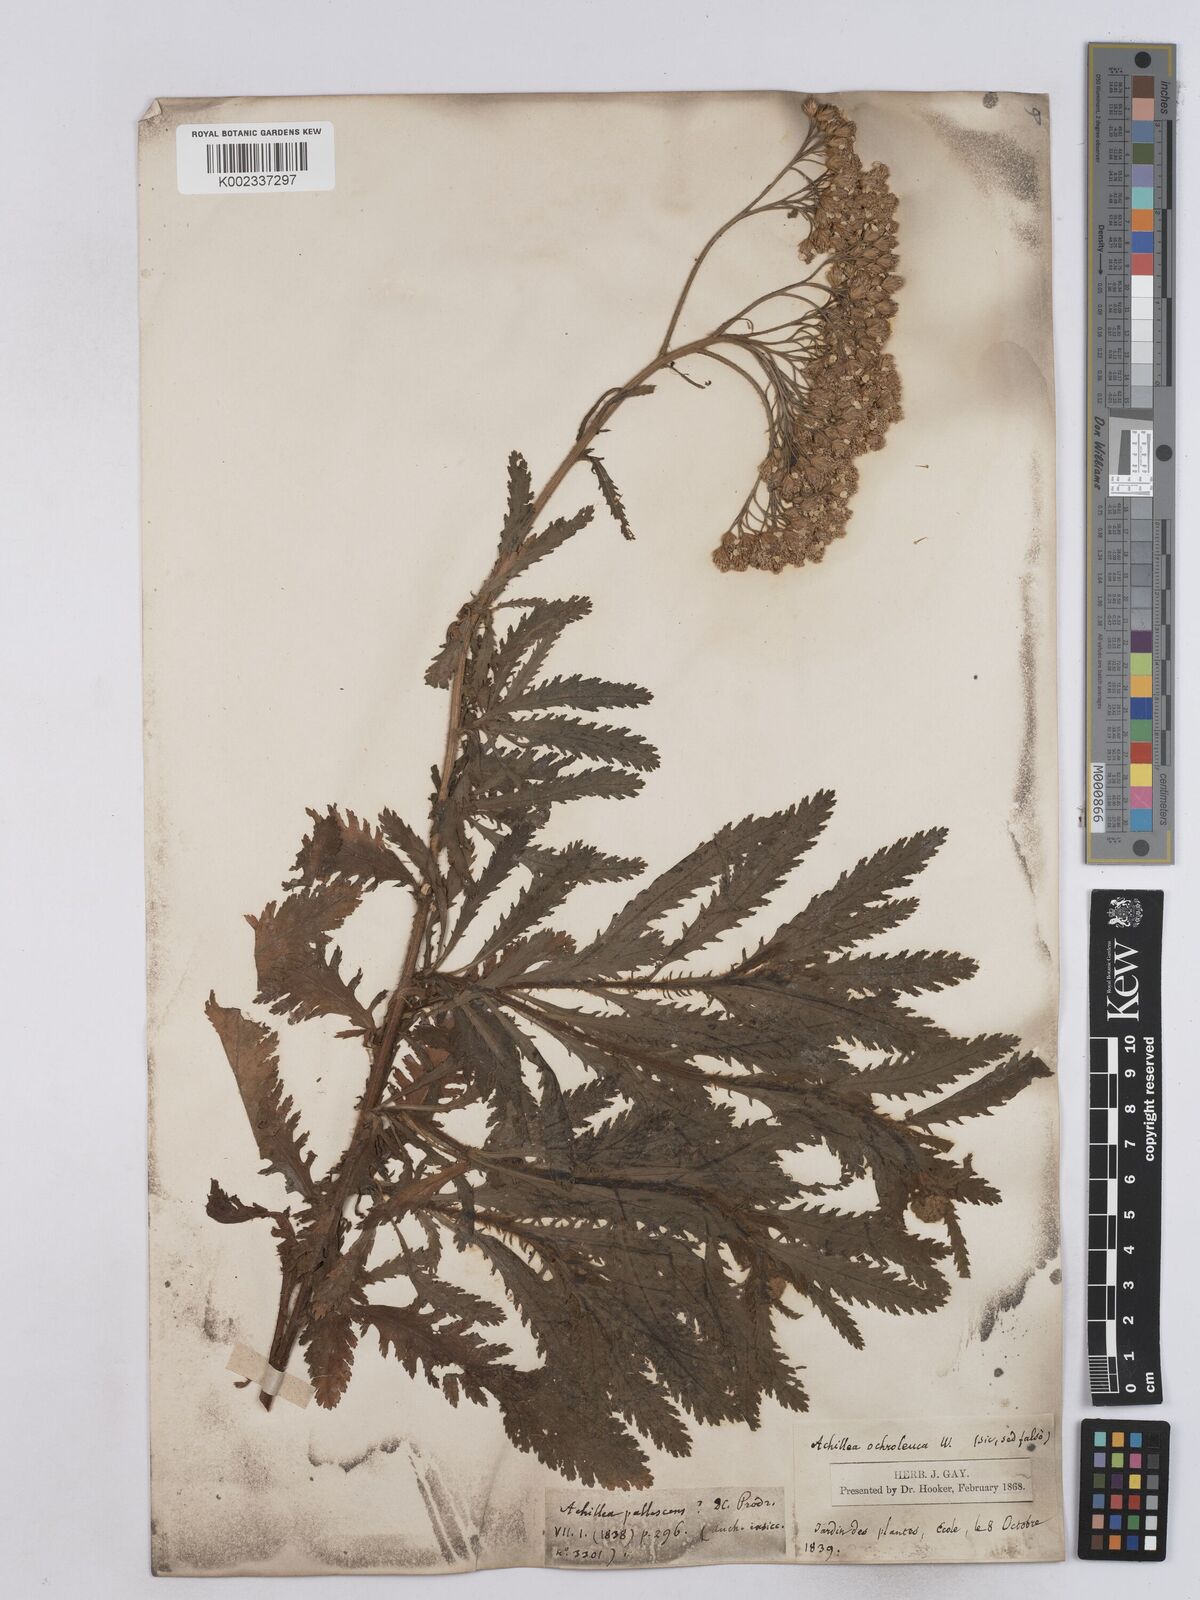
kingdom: Plantae
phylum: Tracheophyta
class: Magnoliopsida
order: Asterales
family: Asteraceae
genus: Achillea
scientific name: Achillea ochroleuca
